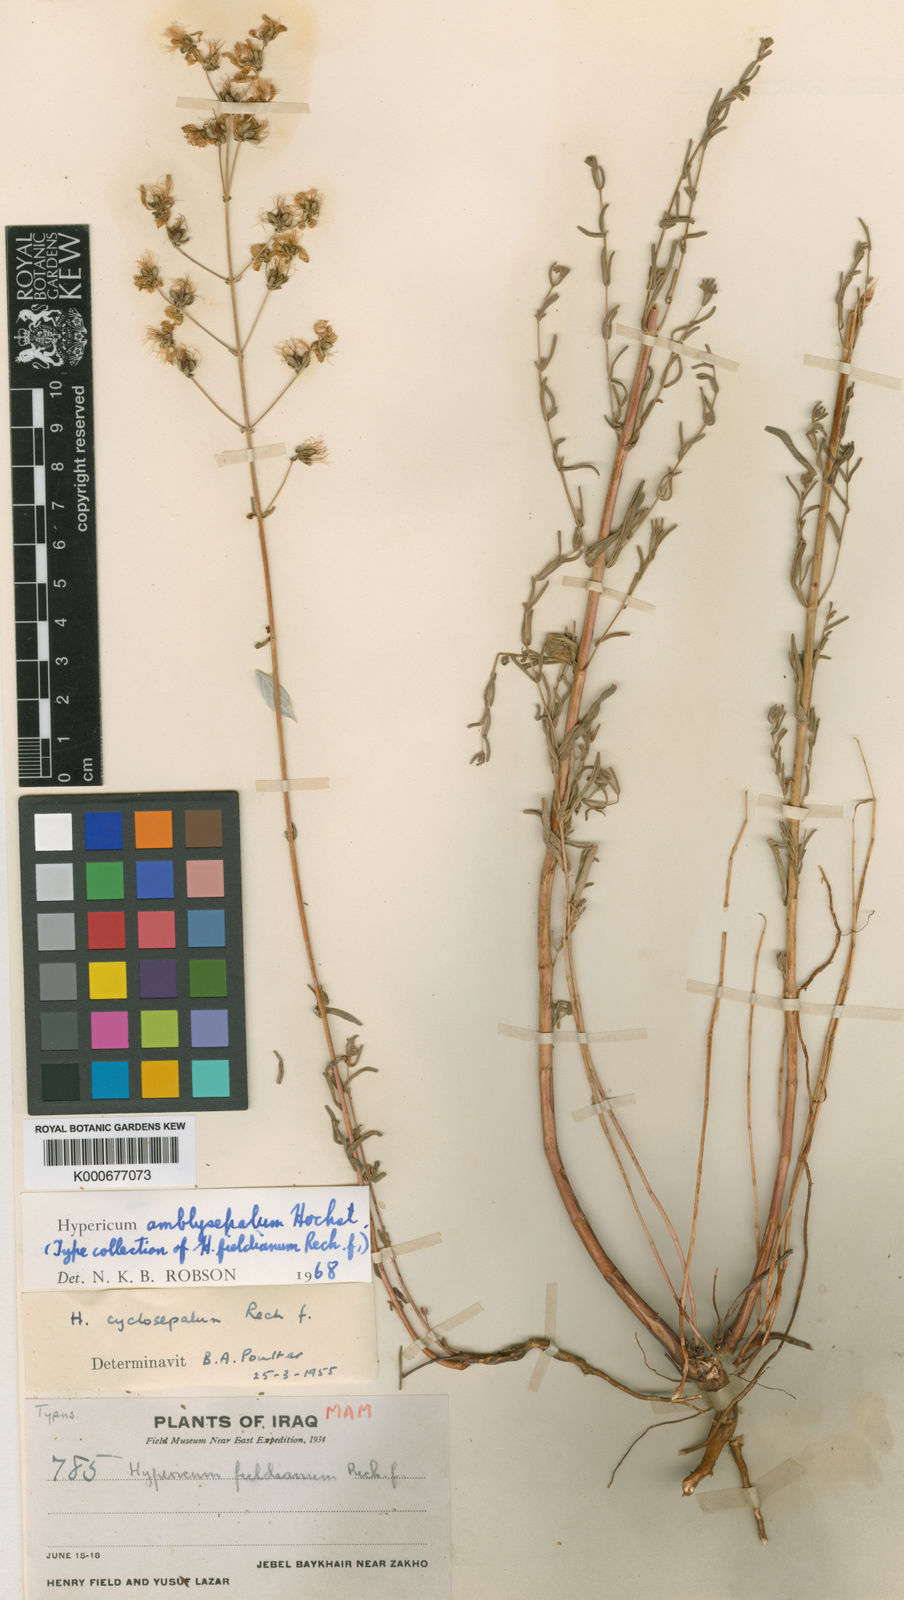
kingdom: Plantae
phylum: Tracheophyta
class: Magnoliopsida
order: Malpighiales
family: Hypericaceae
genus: Hypericum
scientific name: Hypericum amblysepalum
